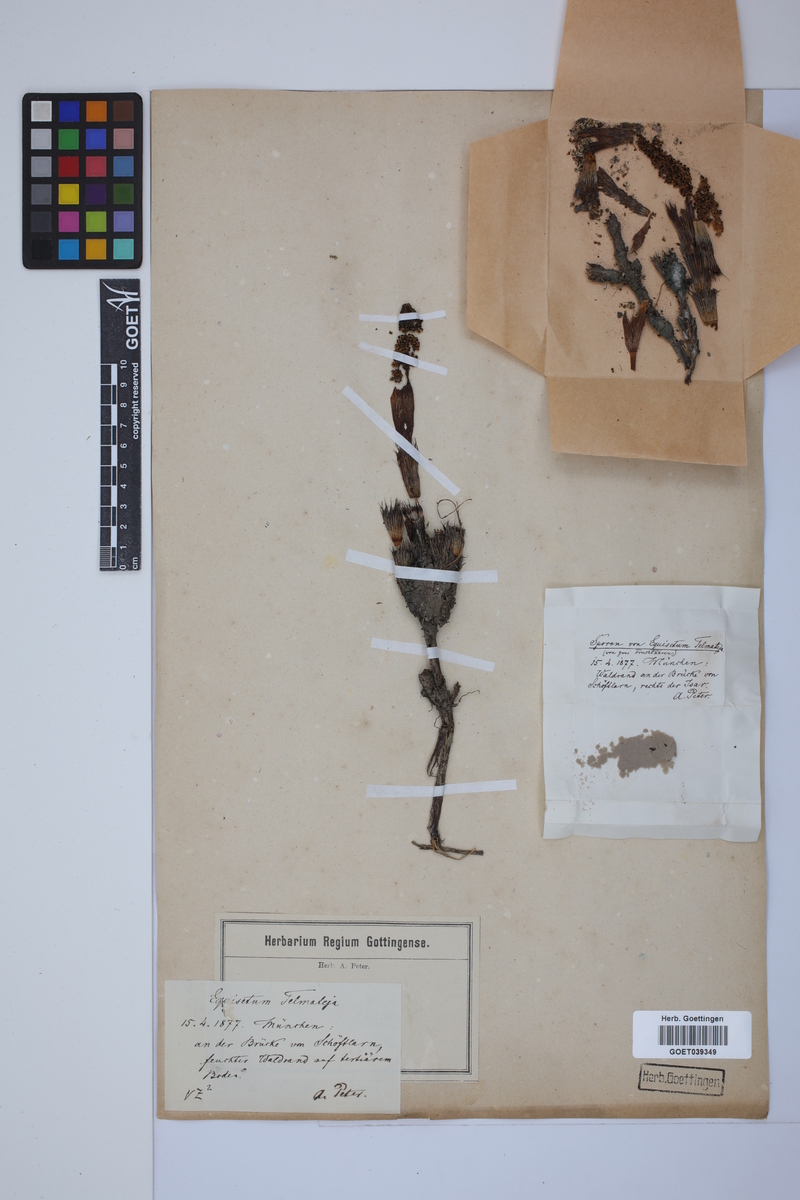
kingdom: Plantae
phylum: Tracheophyta
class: Polypodiopsida
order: Equisetales
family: Equisetaceae
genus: Equisetum
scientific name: Equisetum telmateia
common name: Great horsetail
